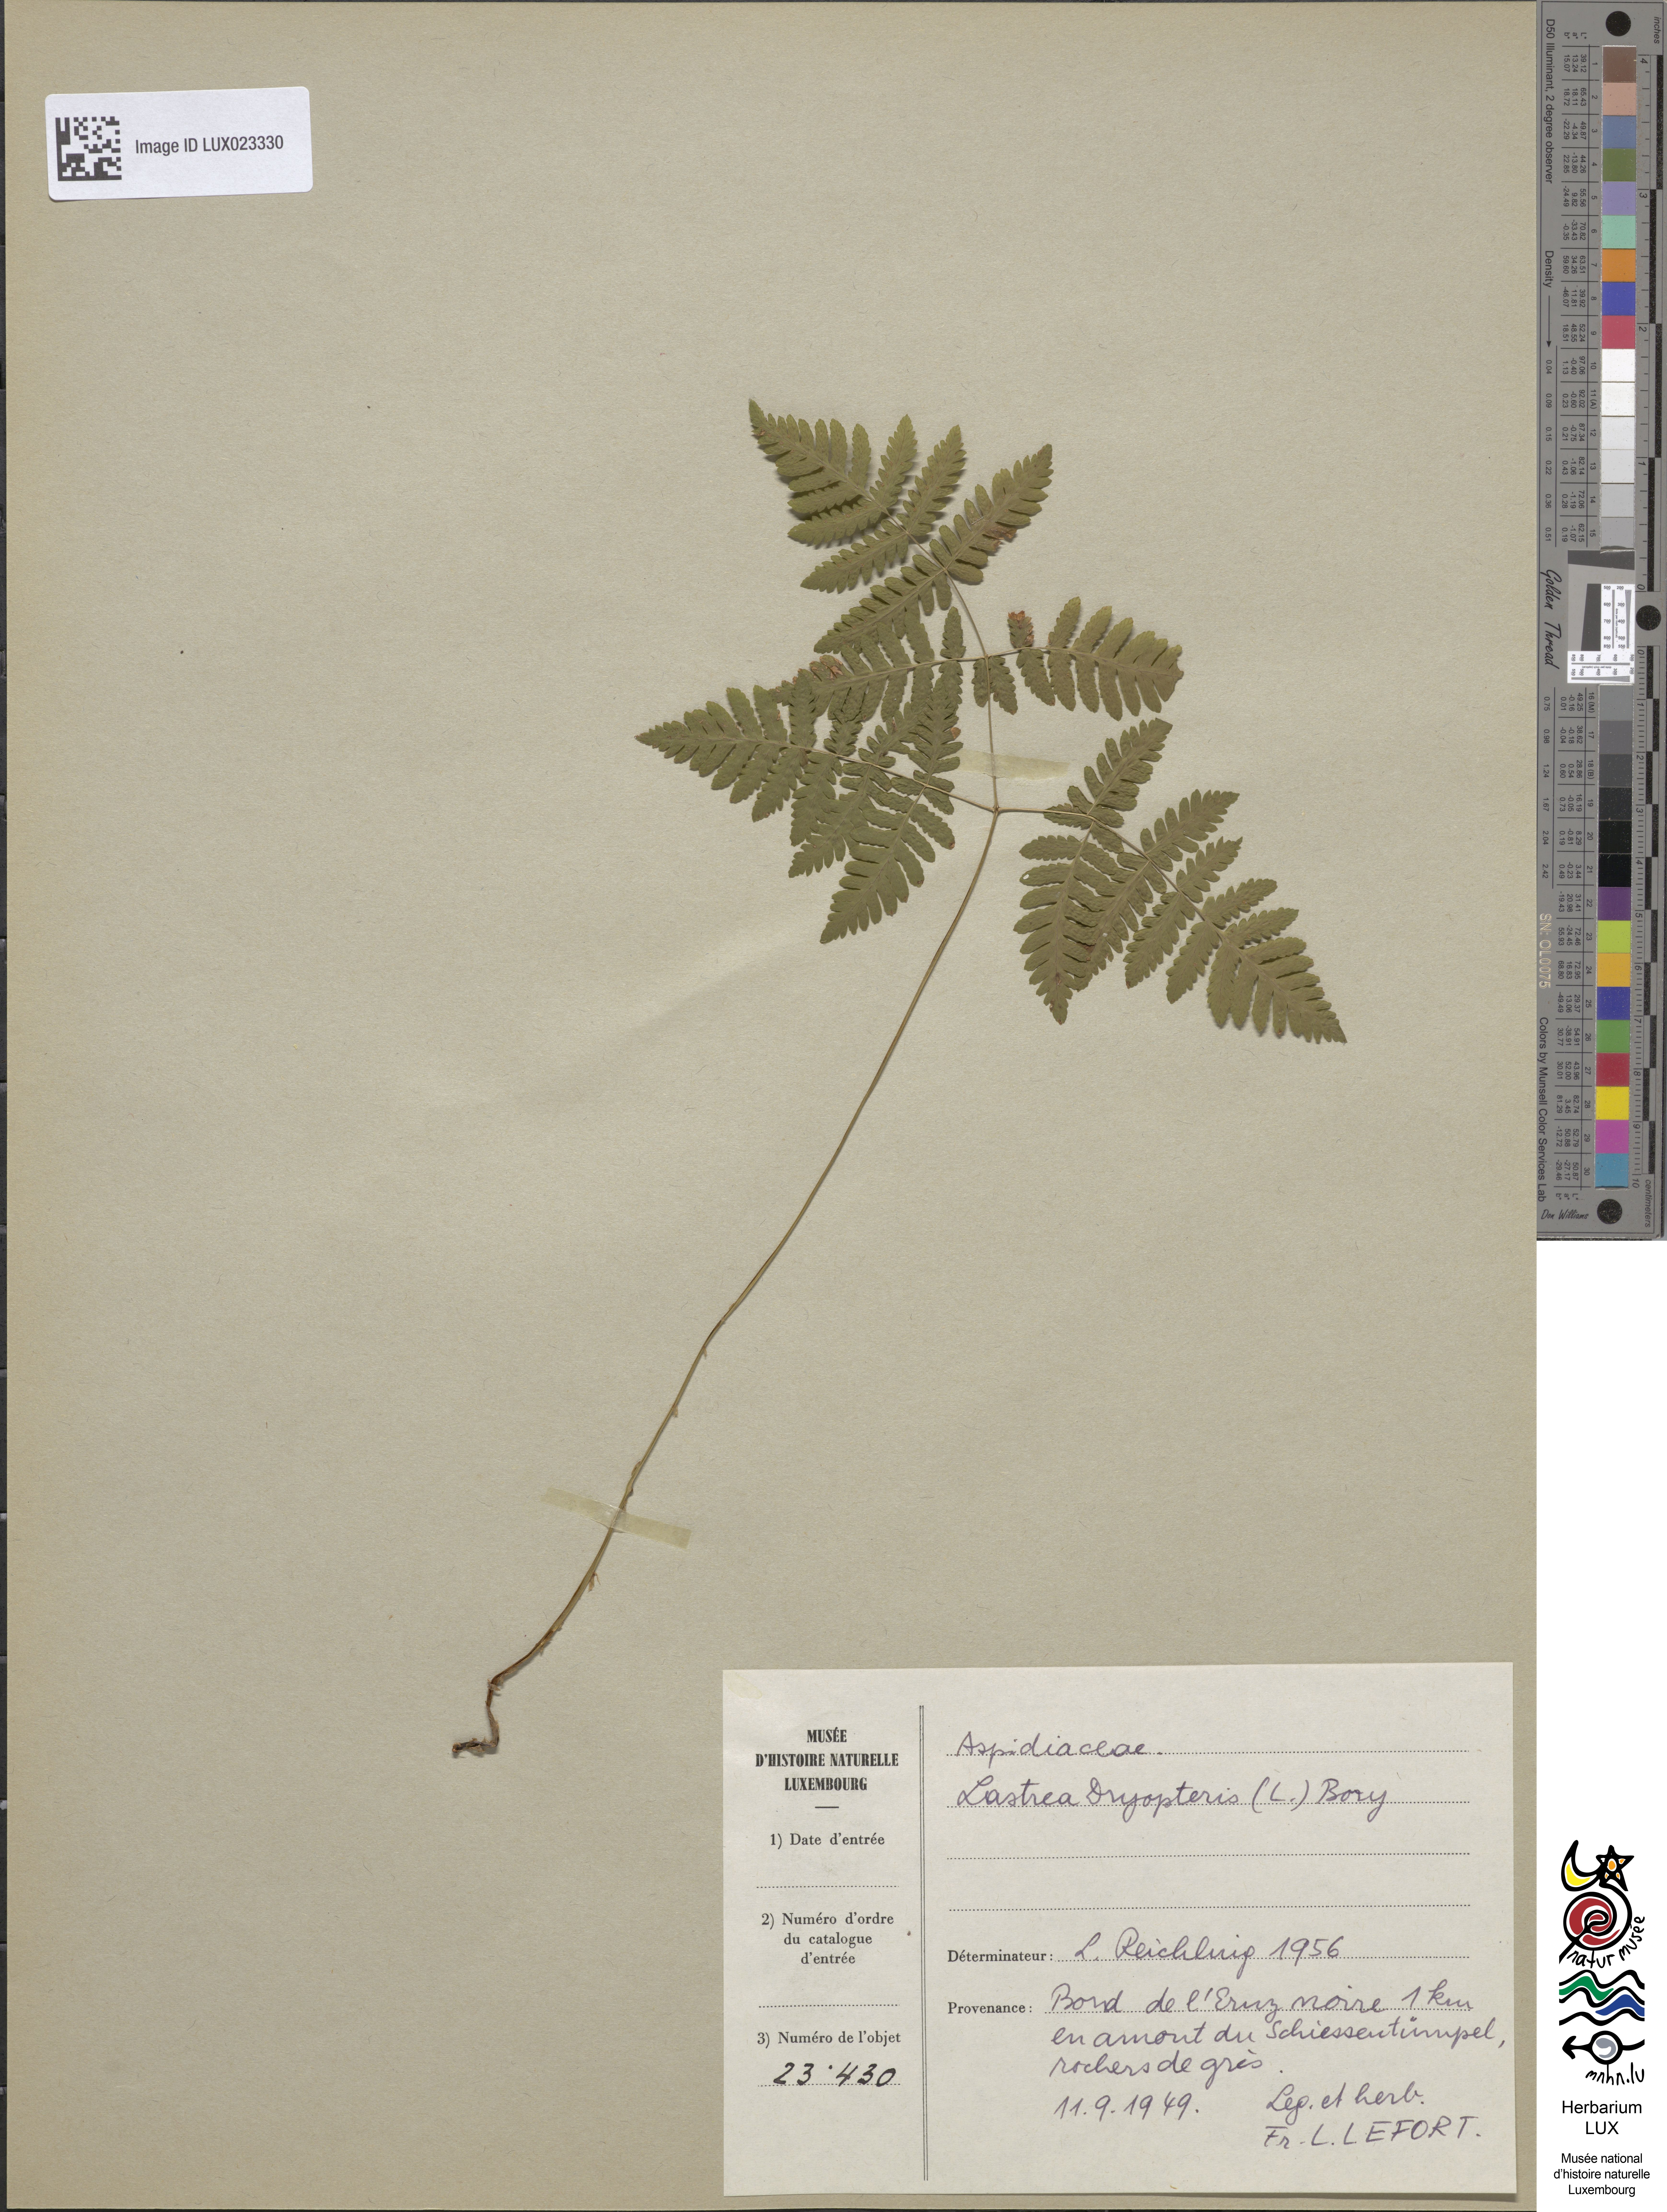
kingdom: Plantae
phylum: Tracheophyta
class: Polypodiopsida
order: Polypodiales
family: Cystopteridaceae
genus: Gymnocarpium
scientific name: Gymnocarpium dryopteris
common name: Oak fern
